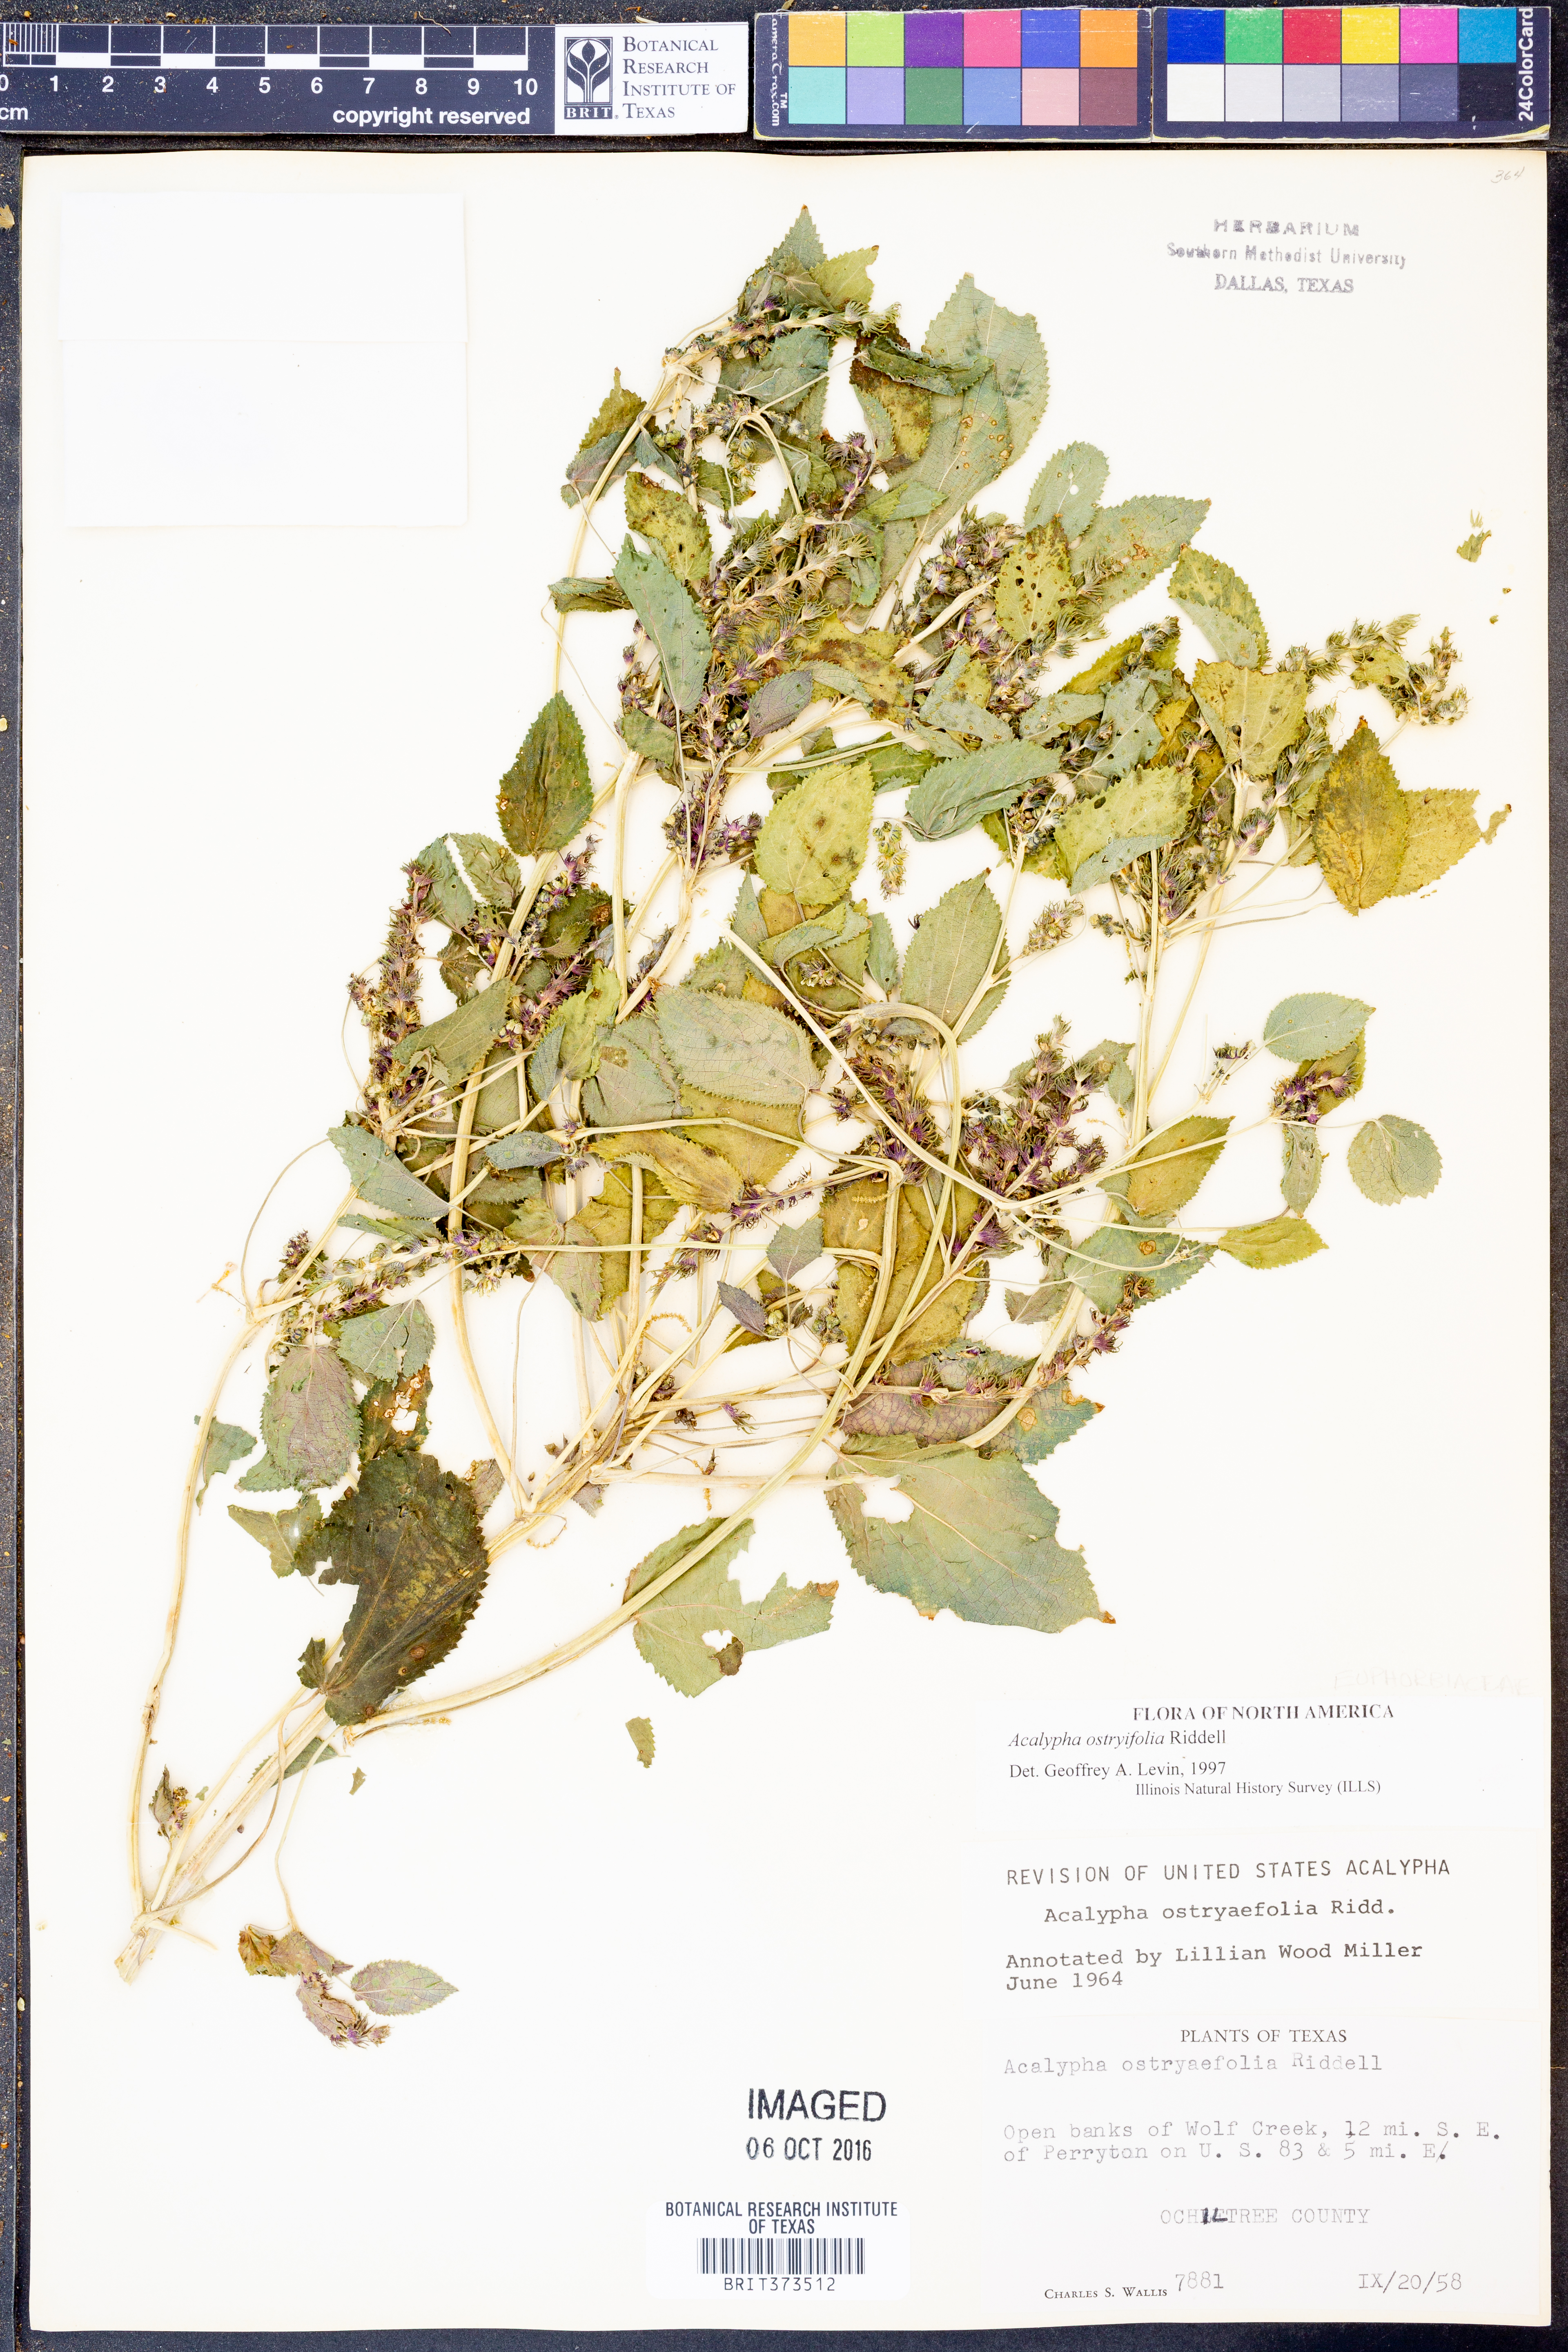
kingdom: Plantae
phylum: Tracheophyta
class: Magnoliopsida
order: Malpighiales
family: Euphorbiaceae
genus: Acalypha
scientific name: Acalypha persimilis
